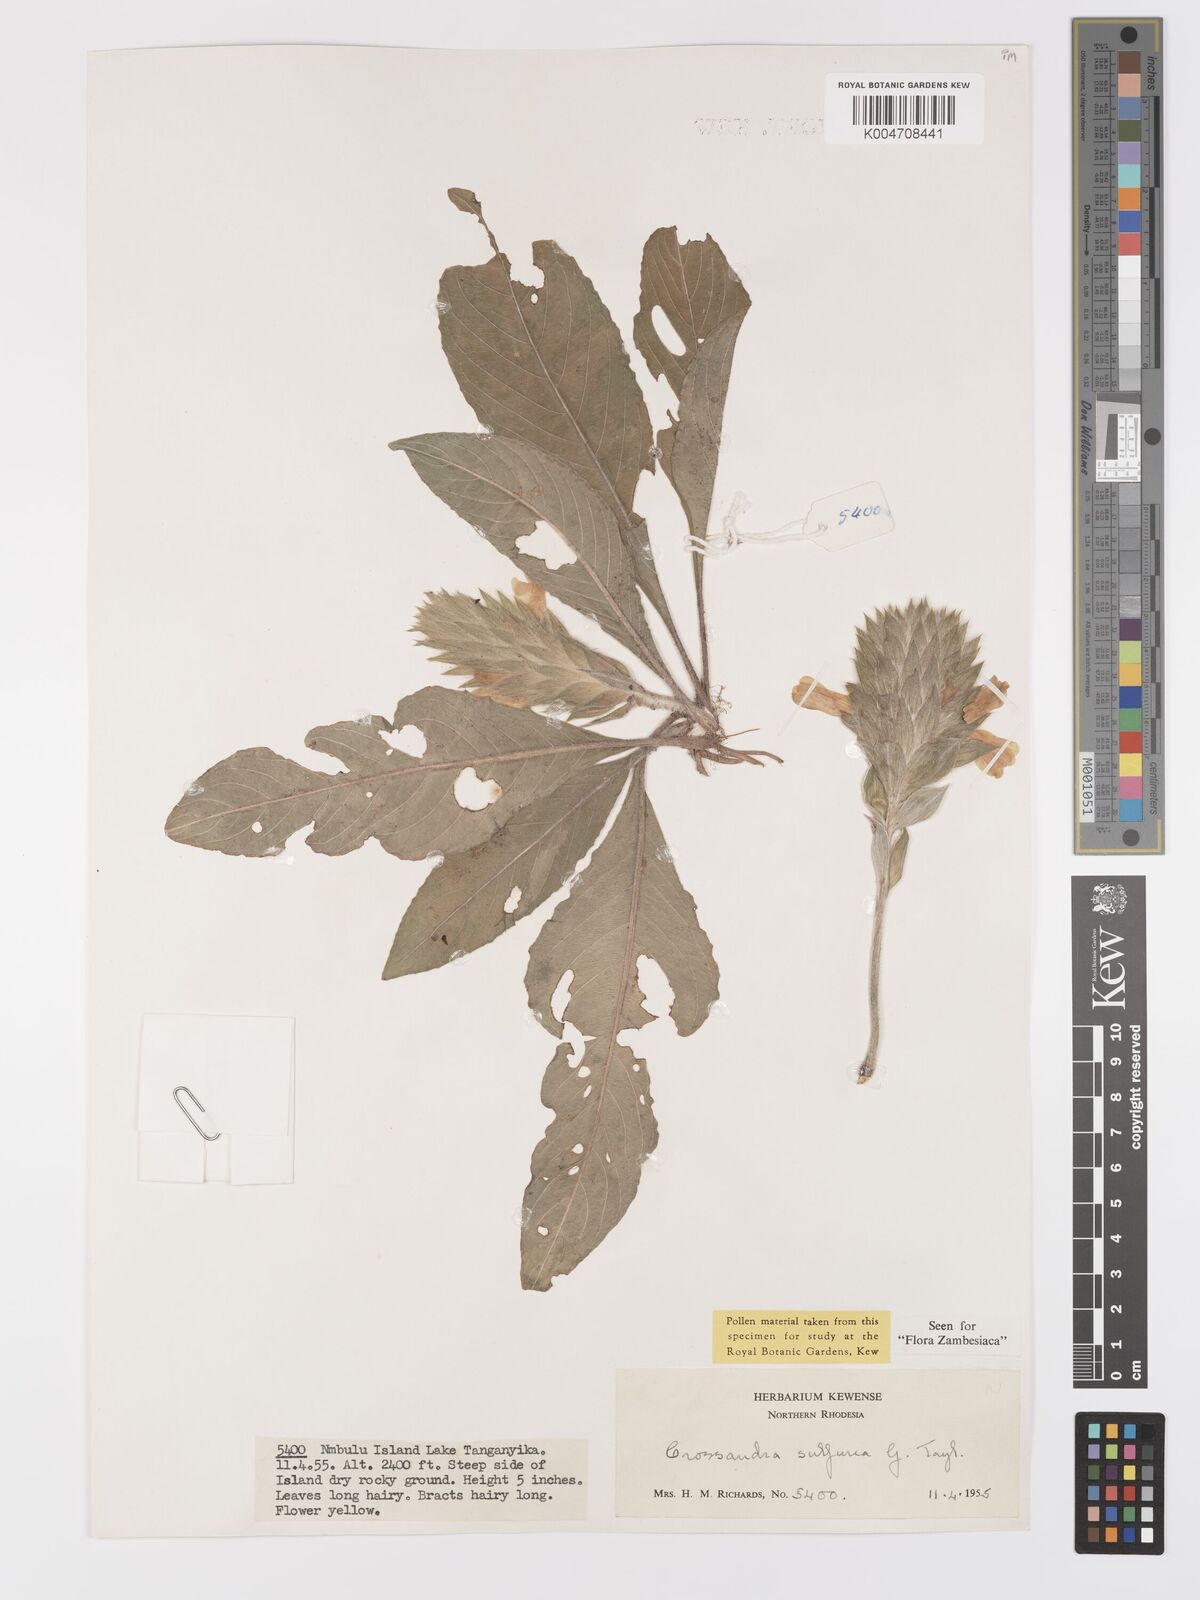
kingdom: Plantae
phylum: Tracheophyta
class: Magnoliopsida
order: Lamiales
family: Acanthaceae
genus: Crossandra
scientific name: Crossandra sulphurea
